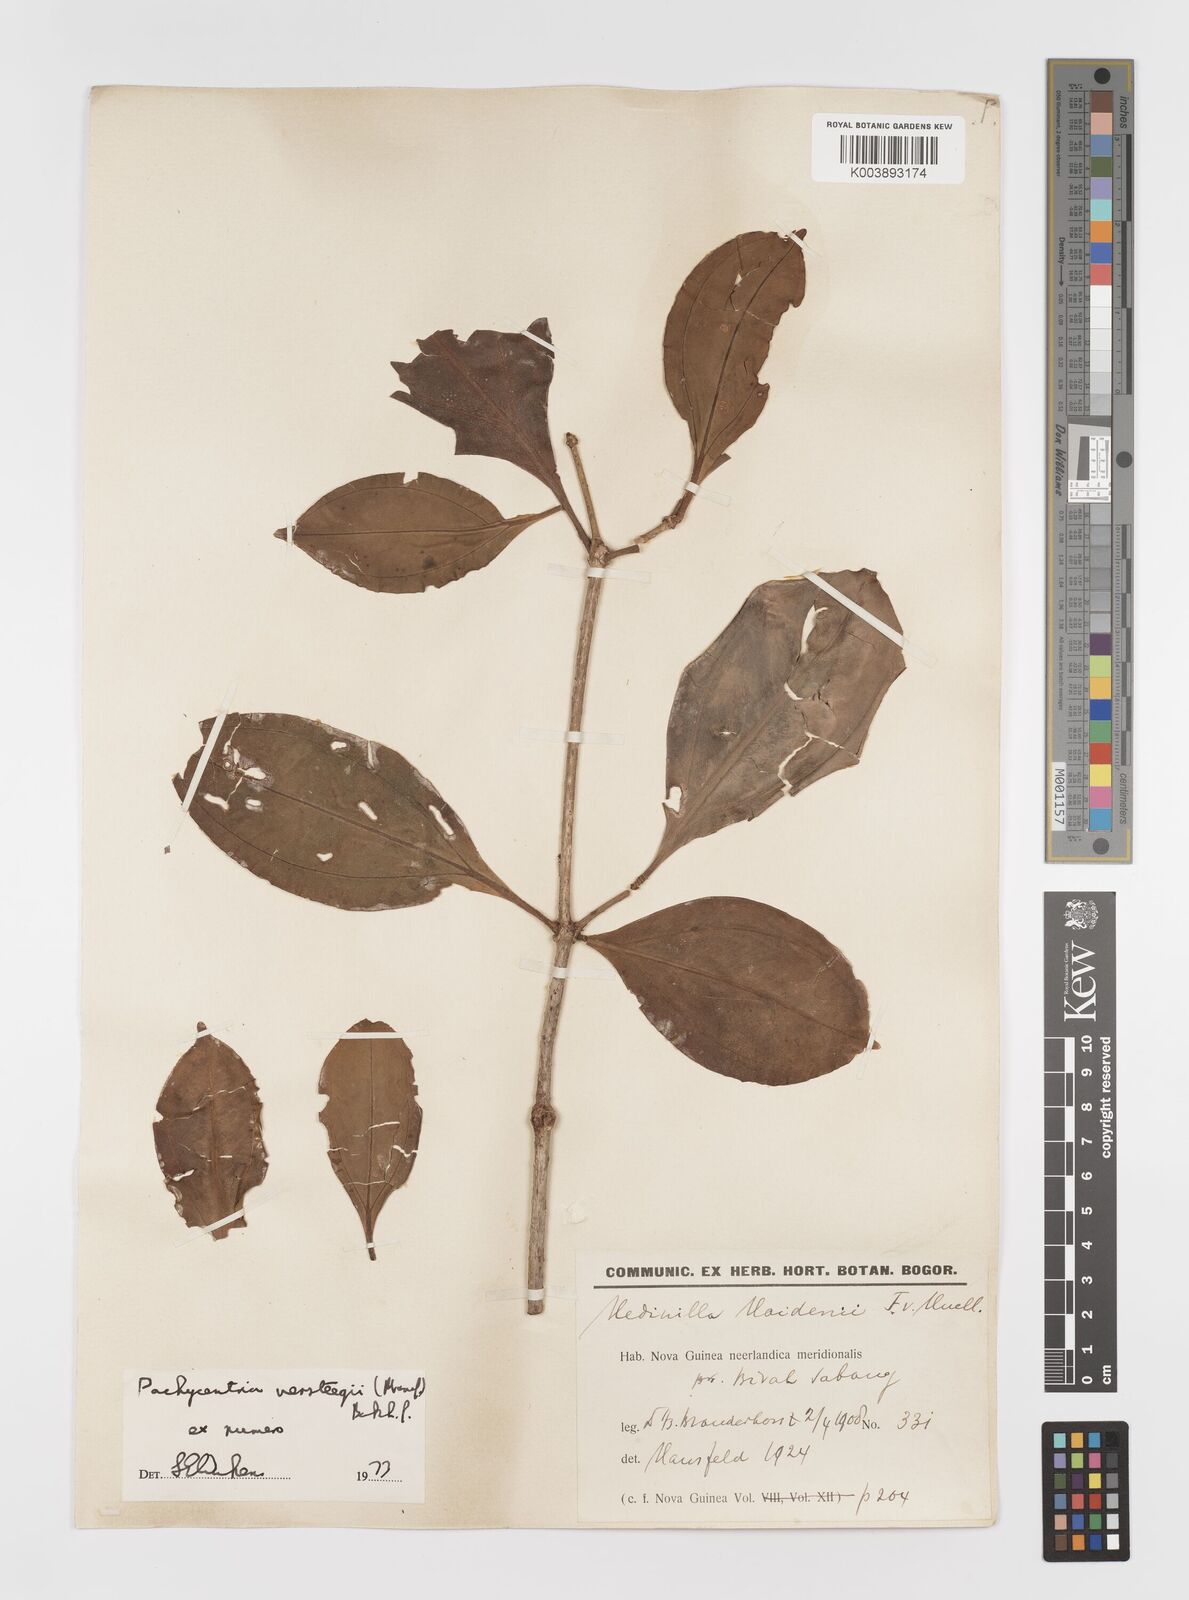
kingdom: Plantae
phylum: Tracheophyta
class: Magnoliopsida
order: Myrtales
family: Melastomataceae
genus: Medinilla
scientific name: Medinilla versteegii
